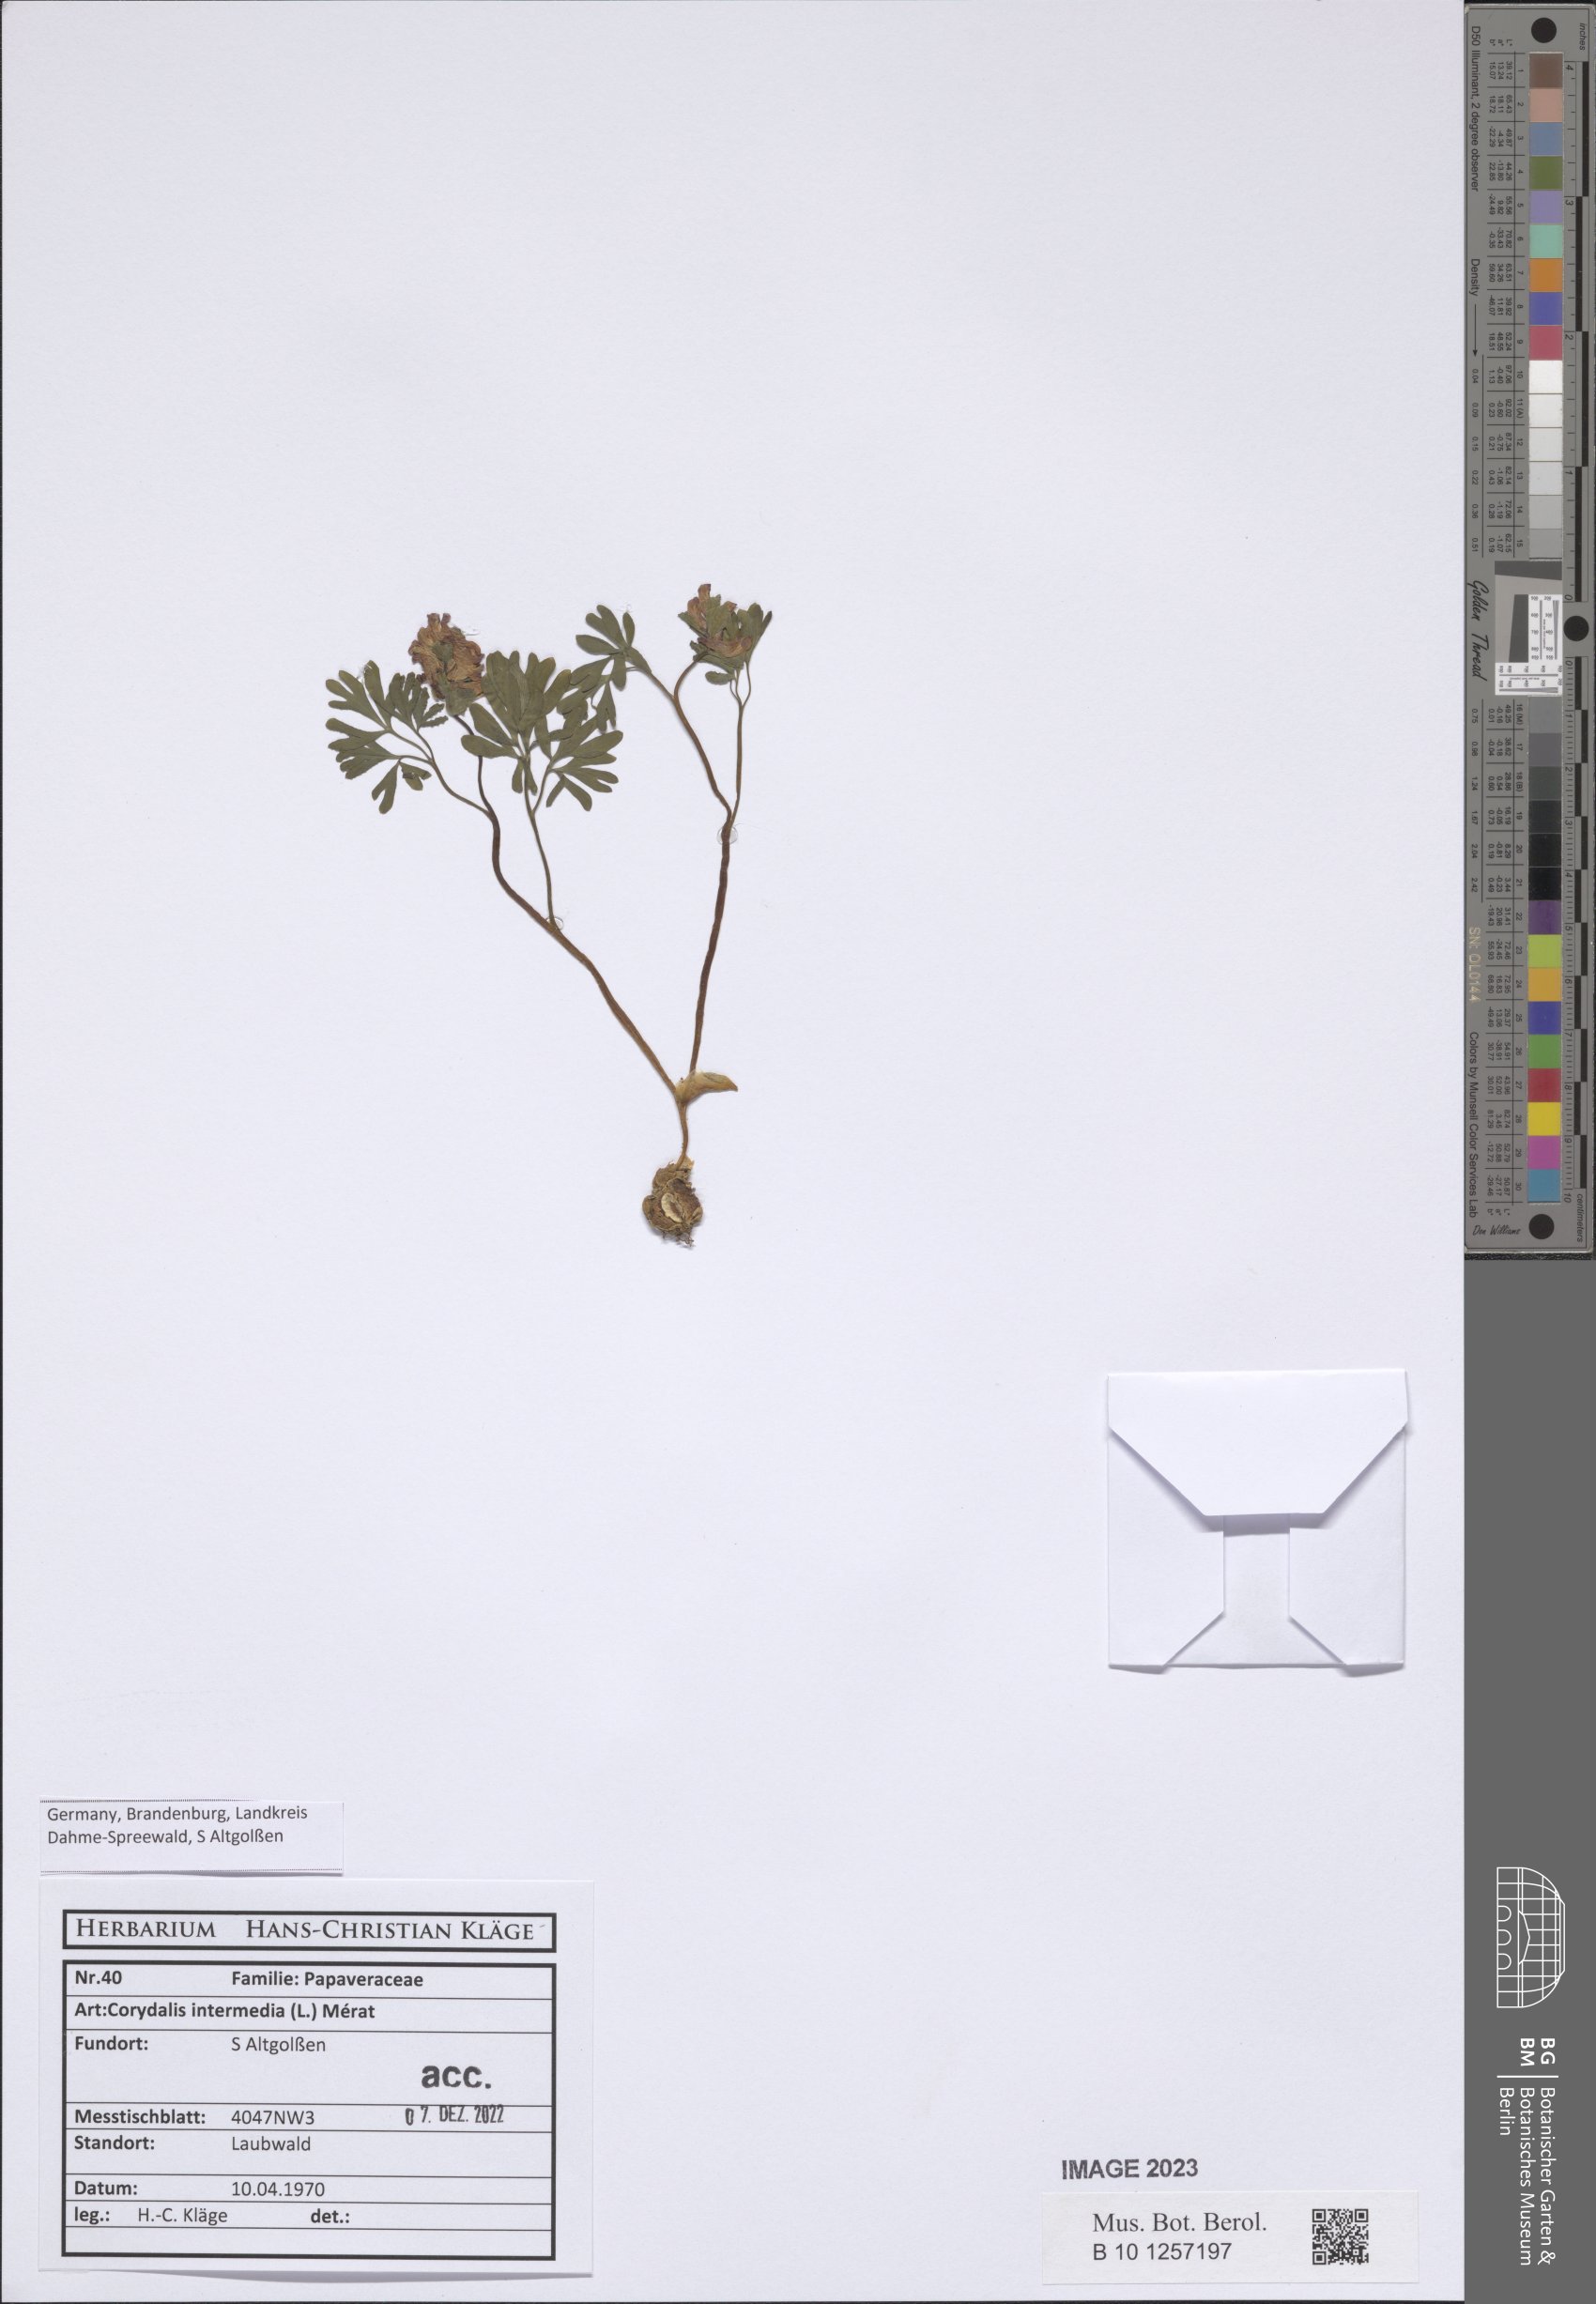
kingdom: Plantae
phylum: Tracheophyta
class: Magnoliopsida
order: Ranunculales
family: Papaveraceae
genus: Corydalis
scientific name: Corydalis intermedia
